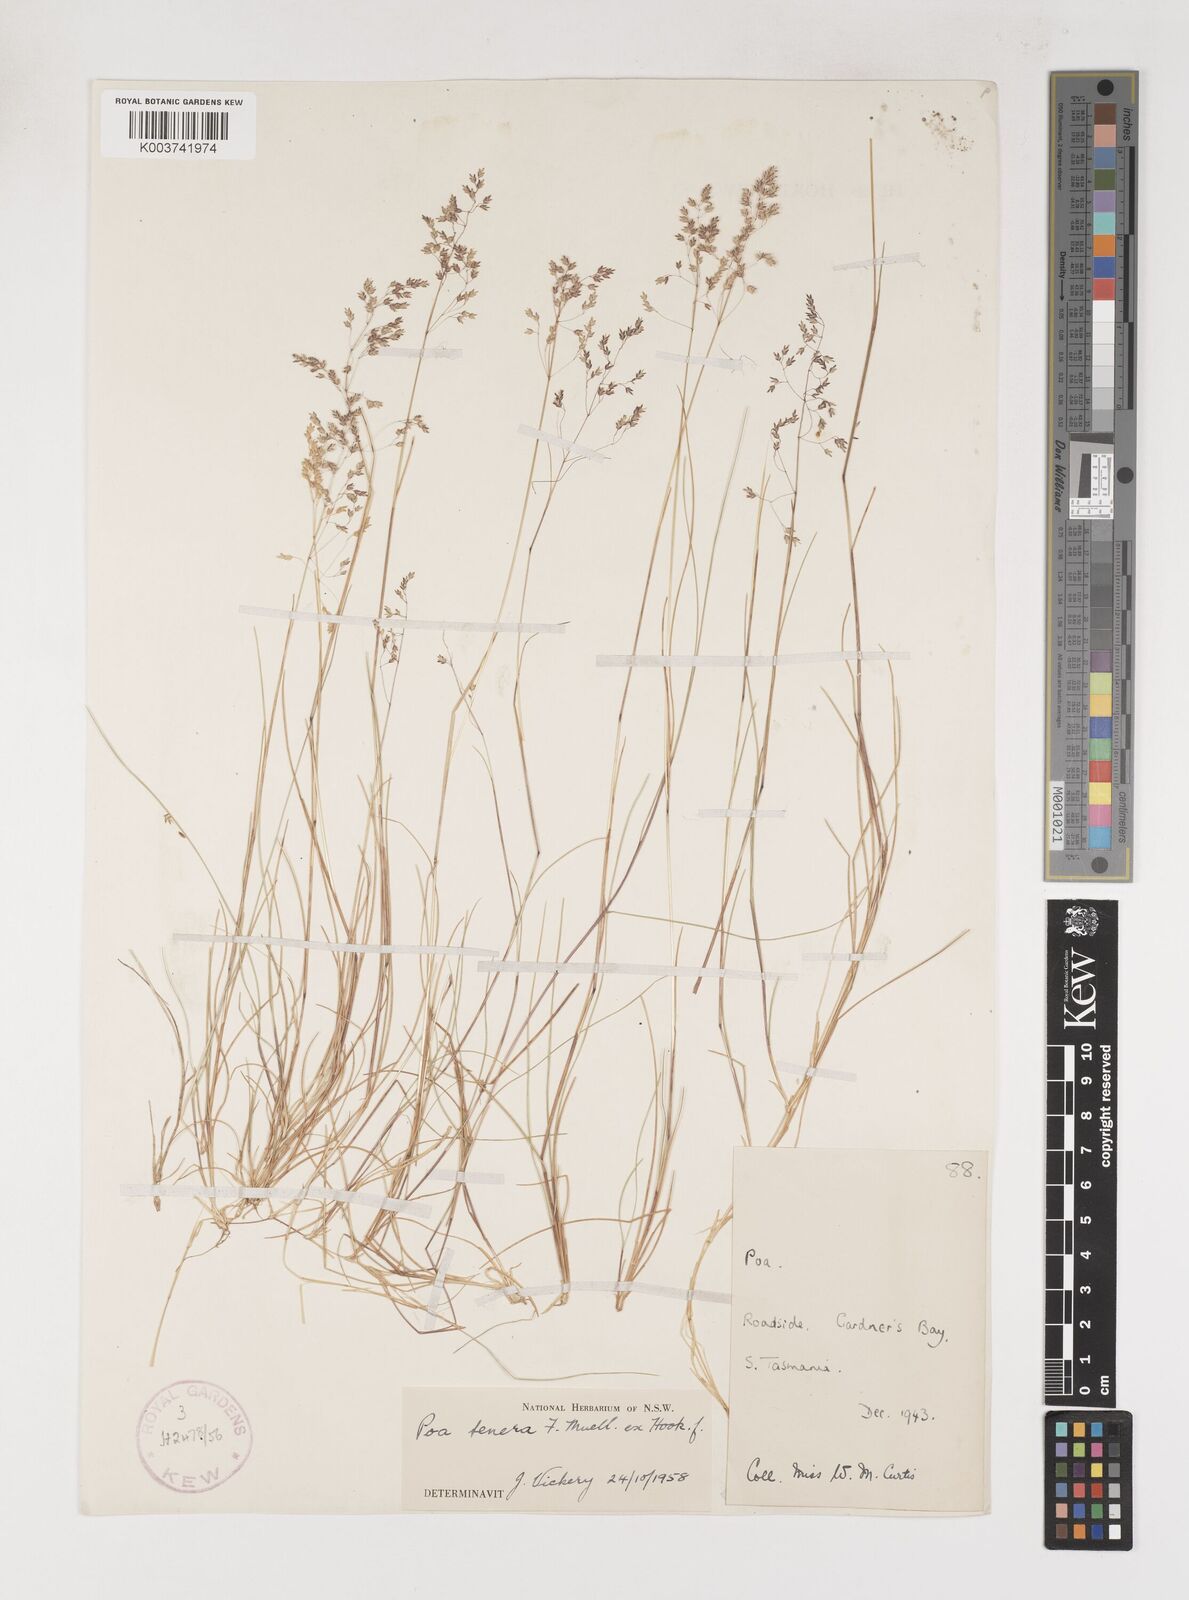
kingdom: Plantae
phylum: Tracheophyta
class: Liliopsida
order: Poales
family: Poaceae
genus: Poa
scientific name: Poa tenera
